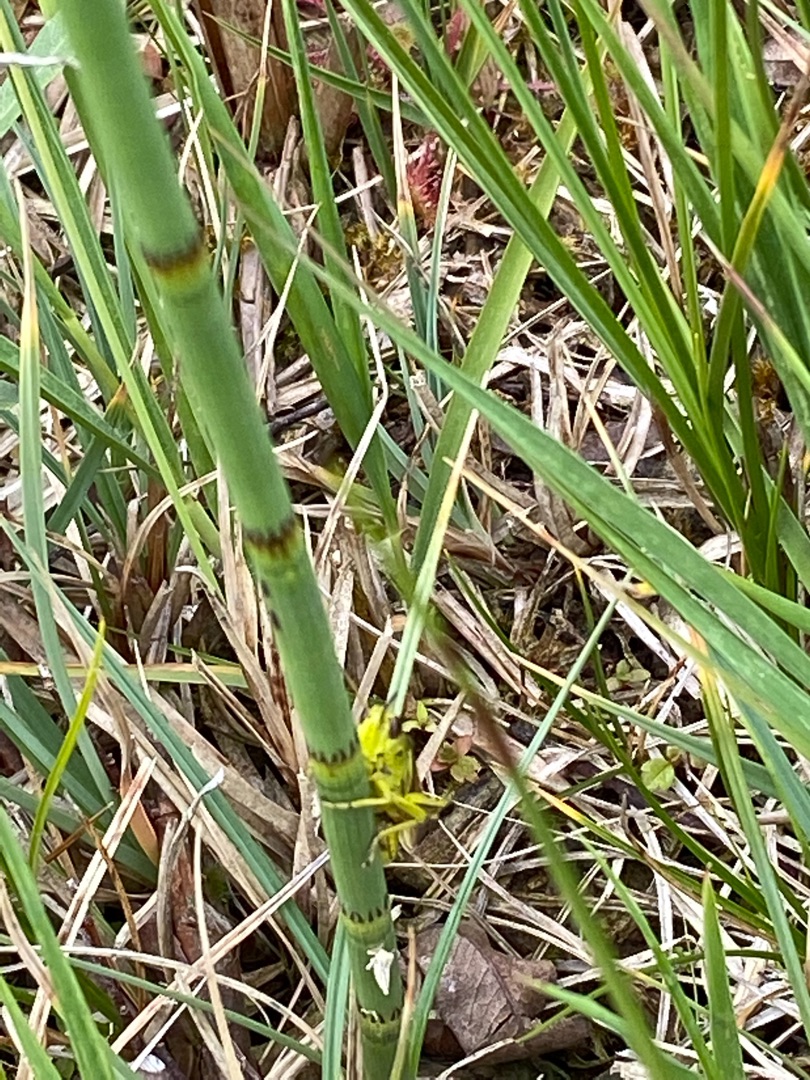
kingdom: Plantae
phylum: Tracheophyta
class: Polypodiopsida
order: Equisetales
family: Equisetaceae
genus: Equisetum
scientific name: Equisetum fluviatile
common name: Dynd-padderok
